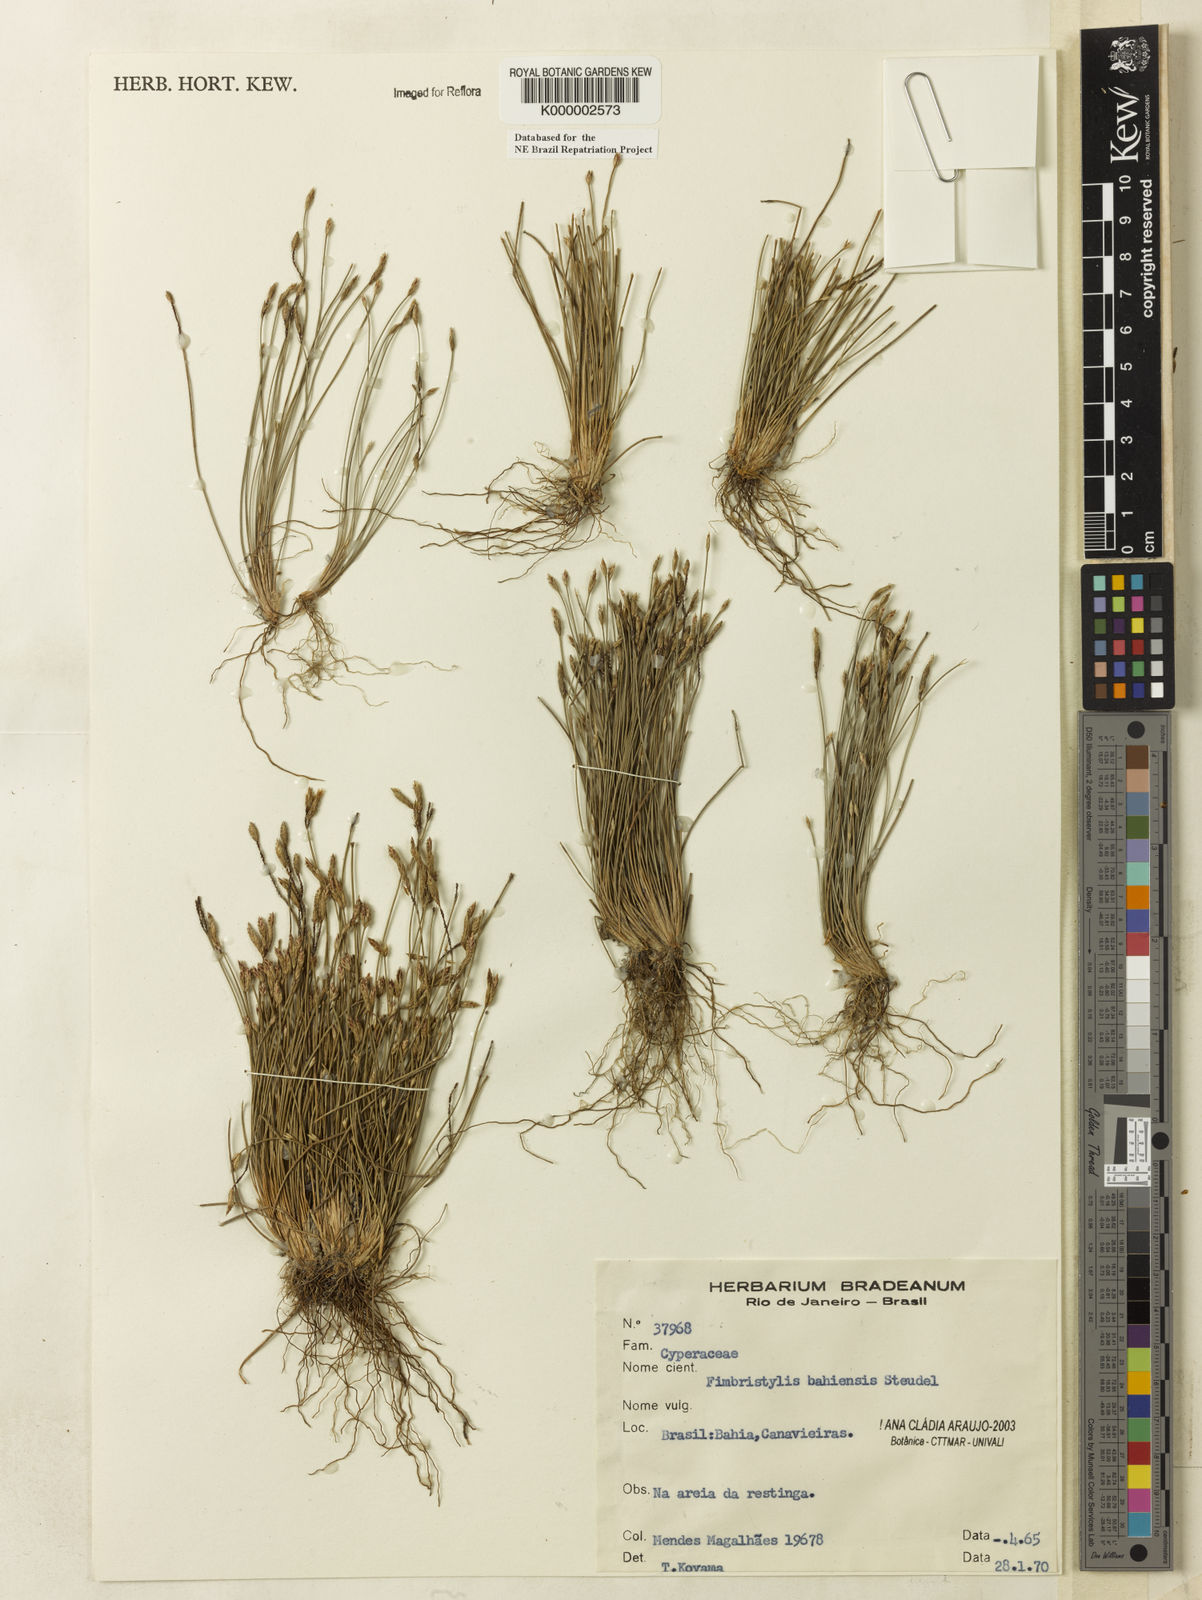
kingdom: Plantae
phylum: Tracheophyta
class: Liliopsida
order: Poales
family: Cyperaceae
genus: Fimbristylis
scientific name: Fimbristylis bahiensis
